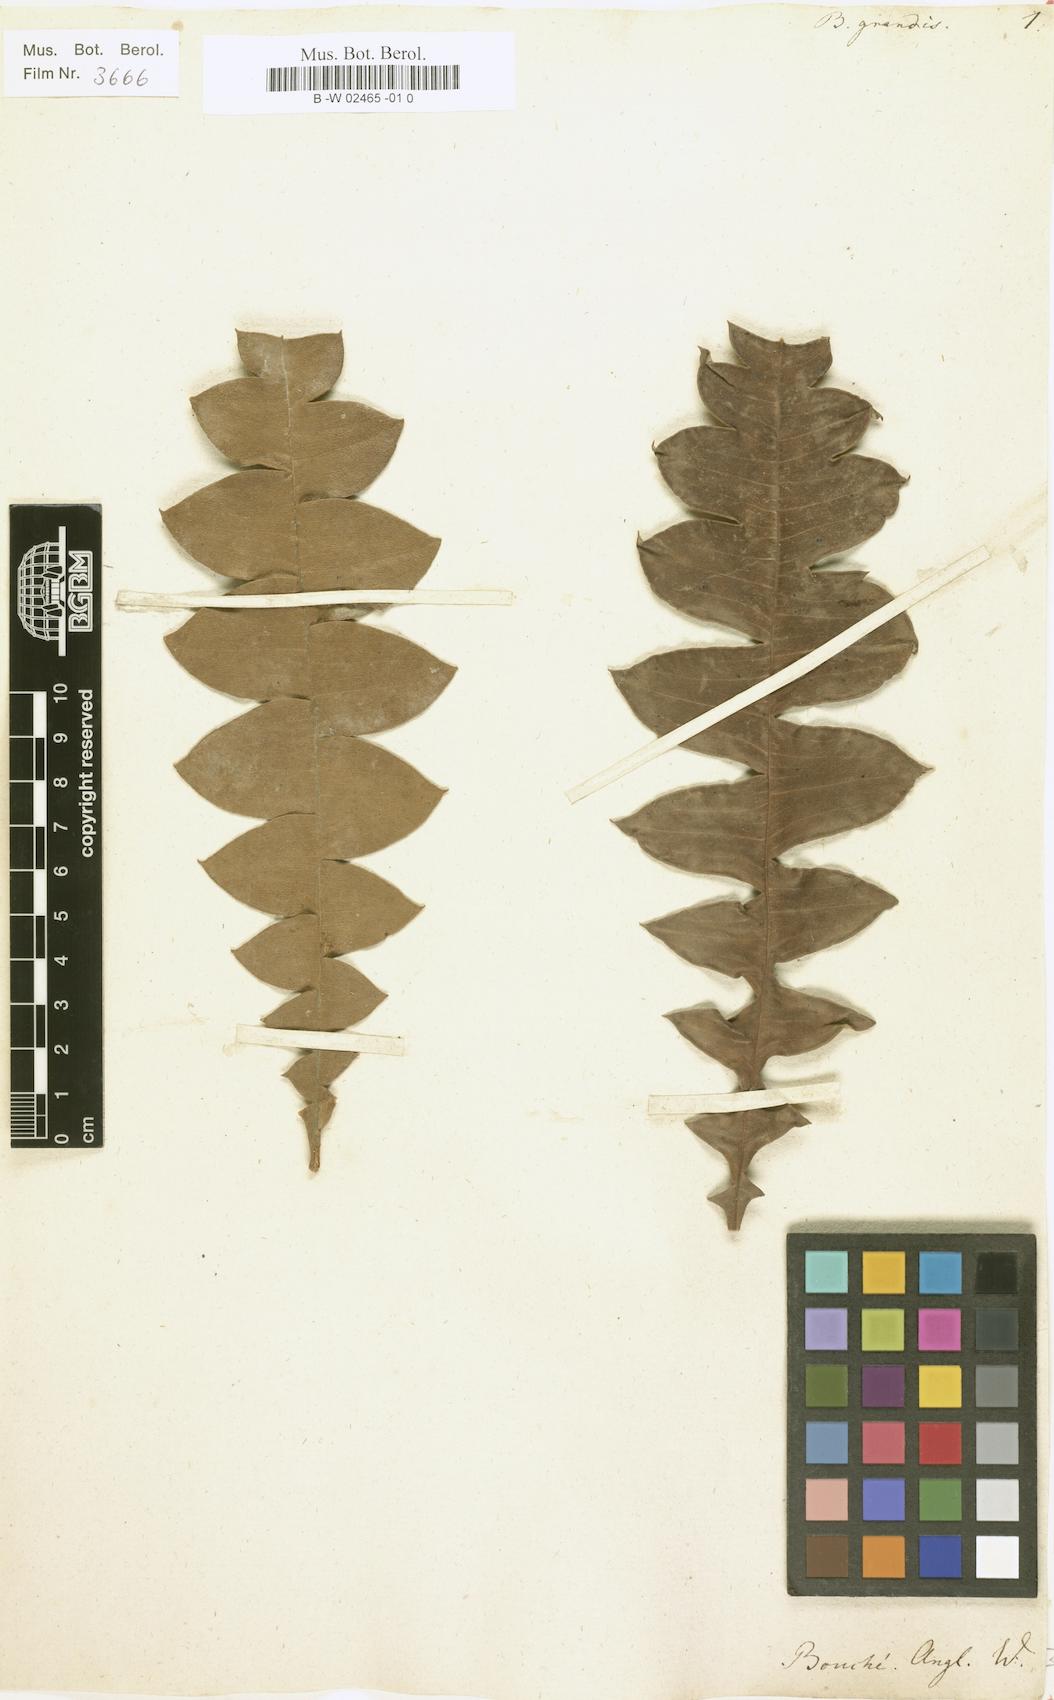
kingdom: Plantae
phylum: Tracheophyta
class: Magnoliopsida
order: Proteales
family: Proteaceae
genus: Banksia
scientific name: Banksia grandis
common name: Giant banksia
